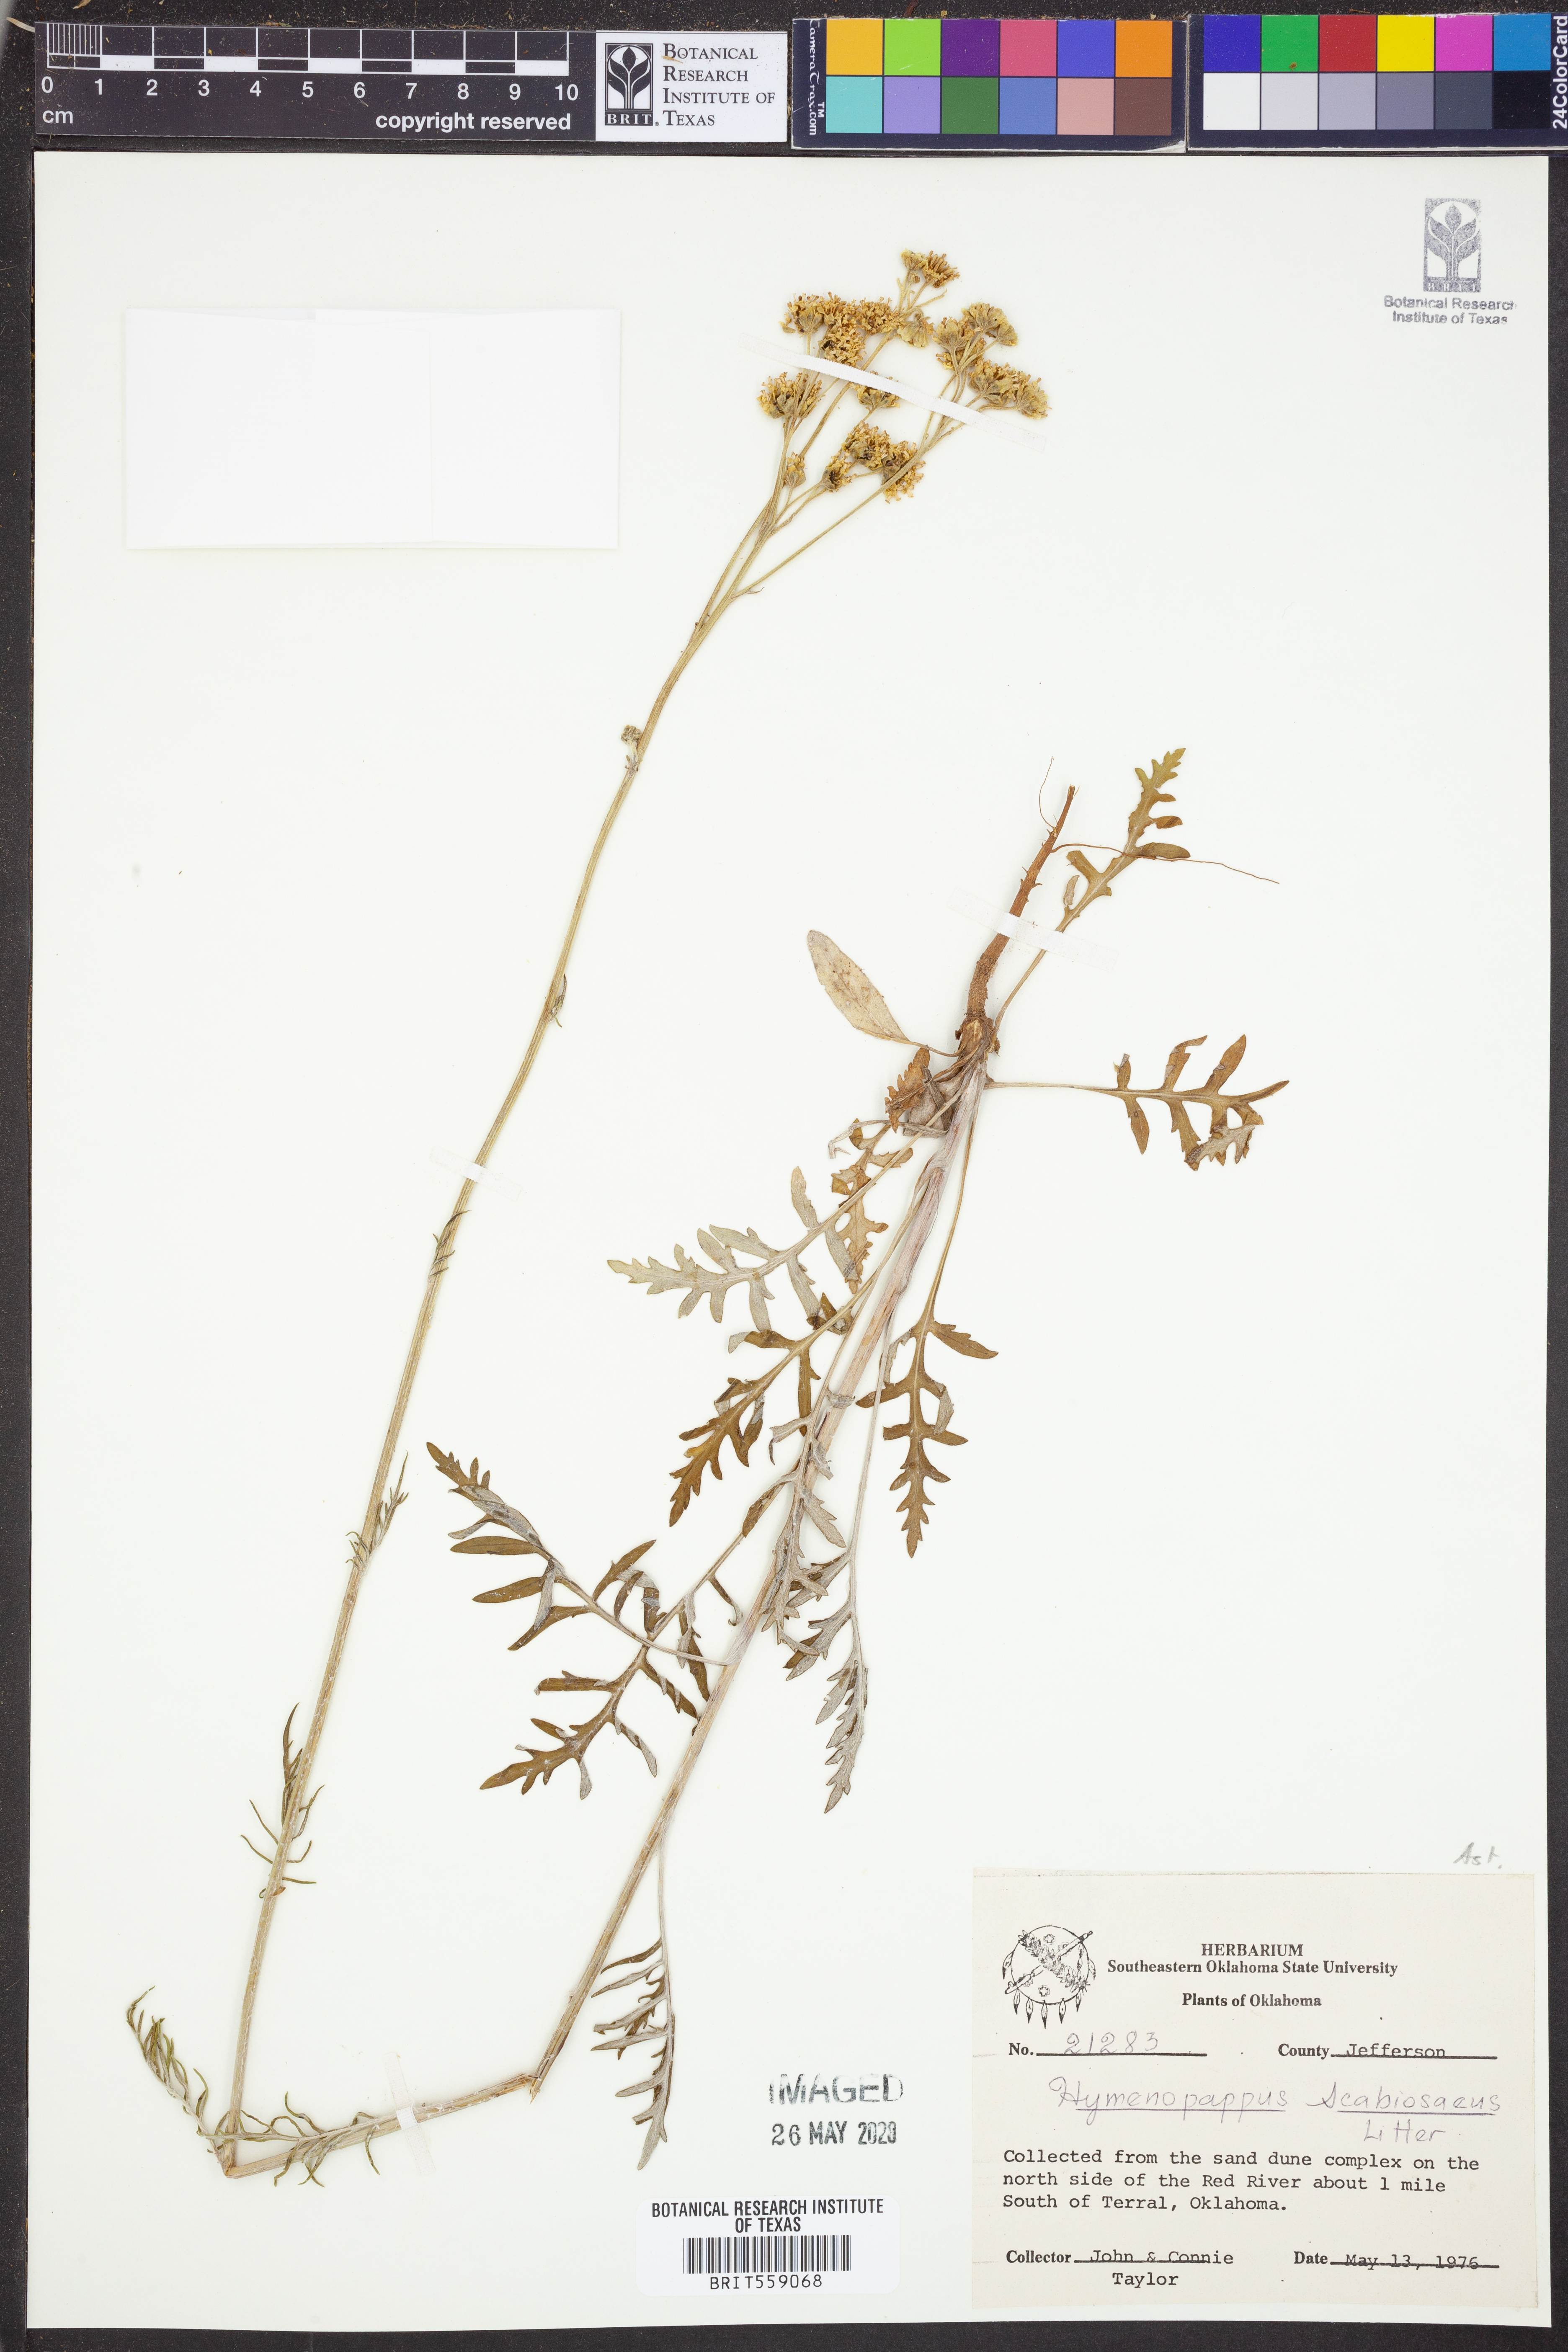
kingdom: Plantae
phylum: Tracheophyta
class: Magnoliopsida
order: Asterales
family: Asteraceae
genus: Hymenopappus
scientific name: Hymenopappus scabiosaeus
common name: Carolina woollywhite
